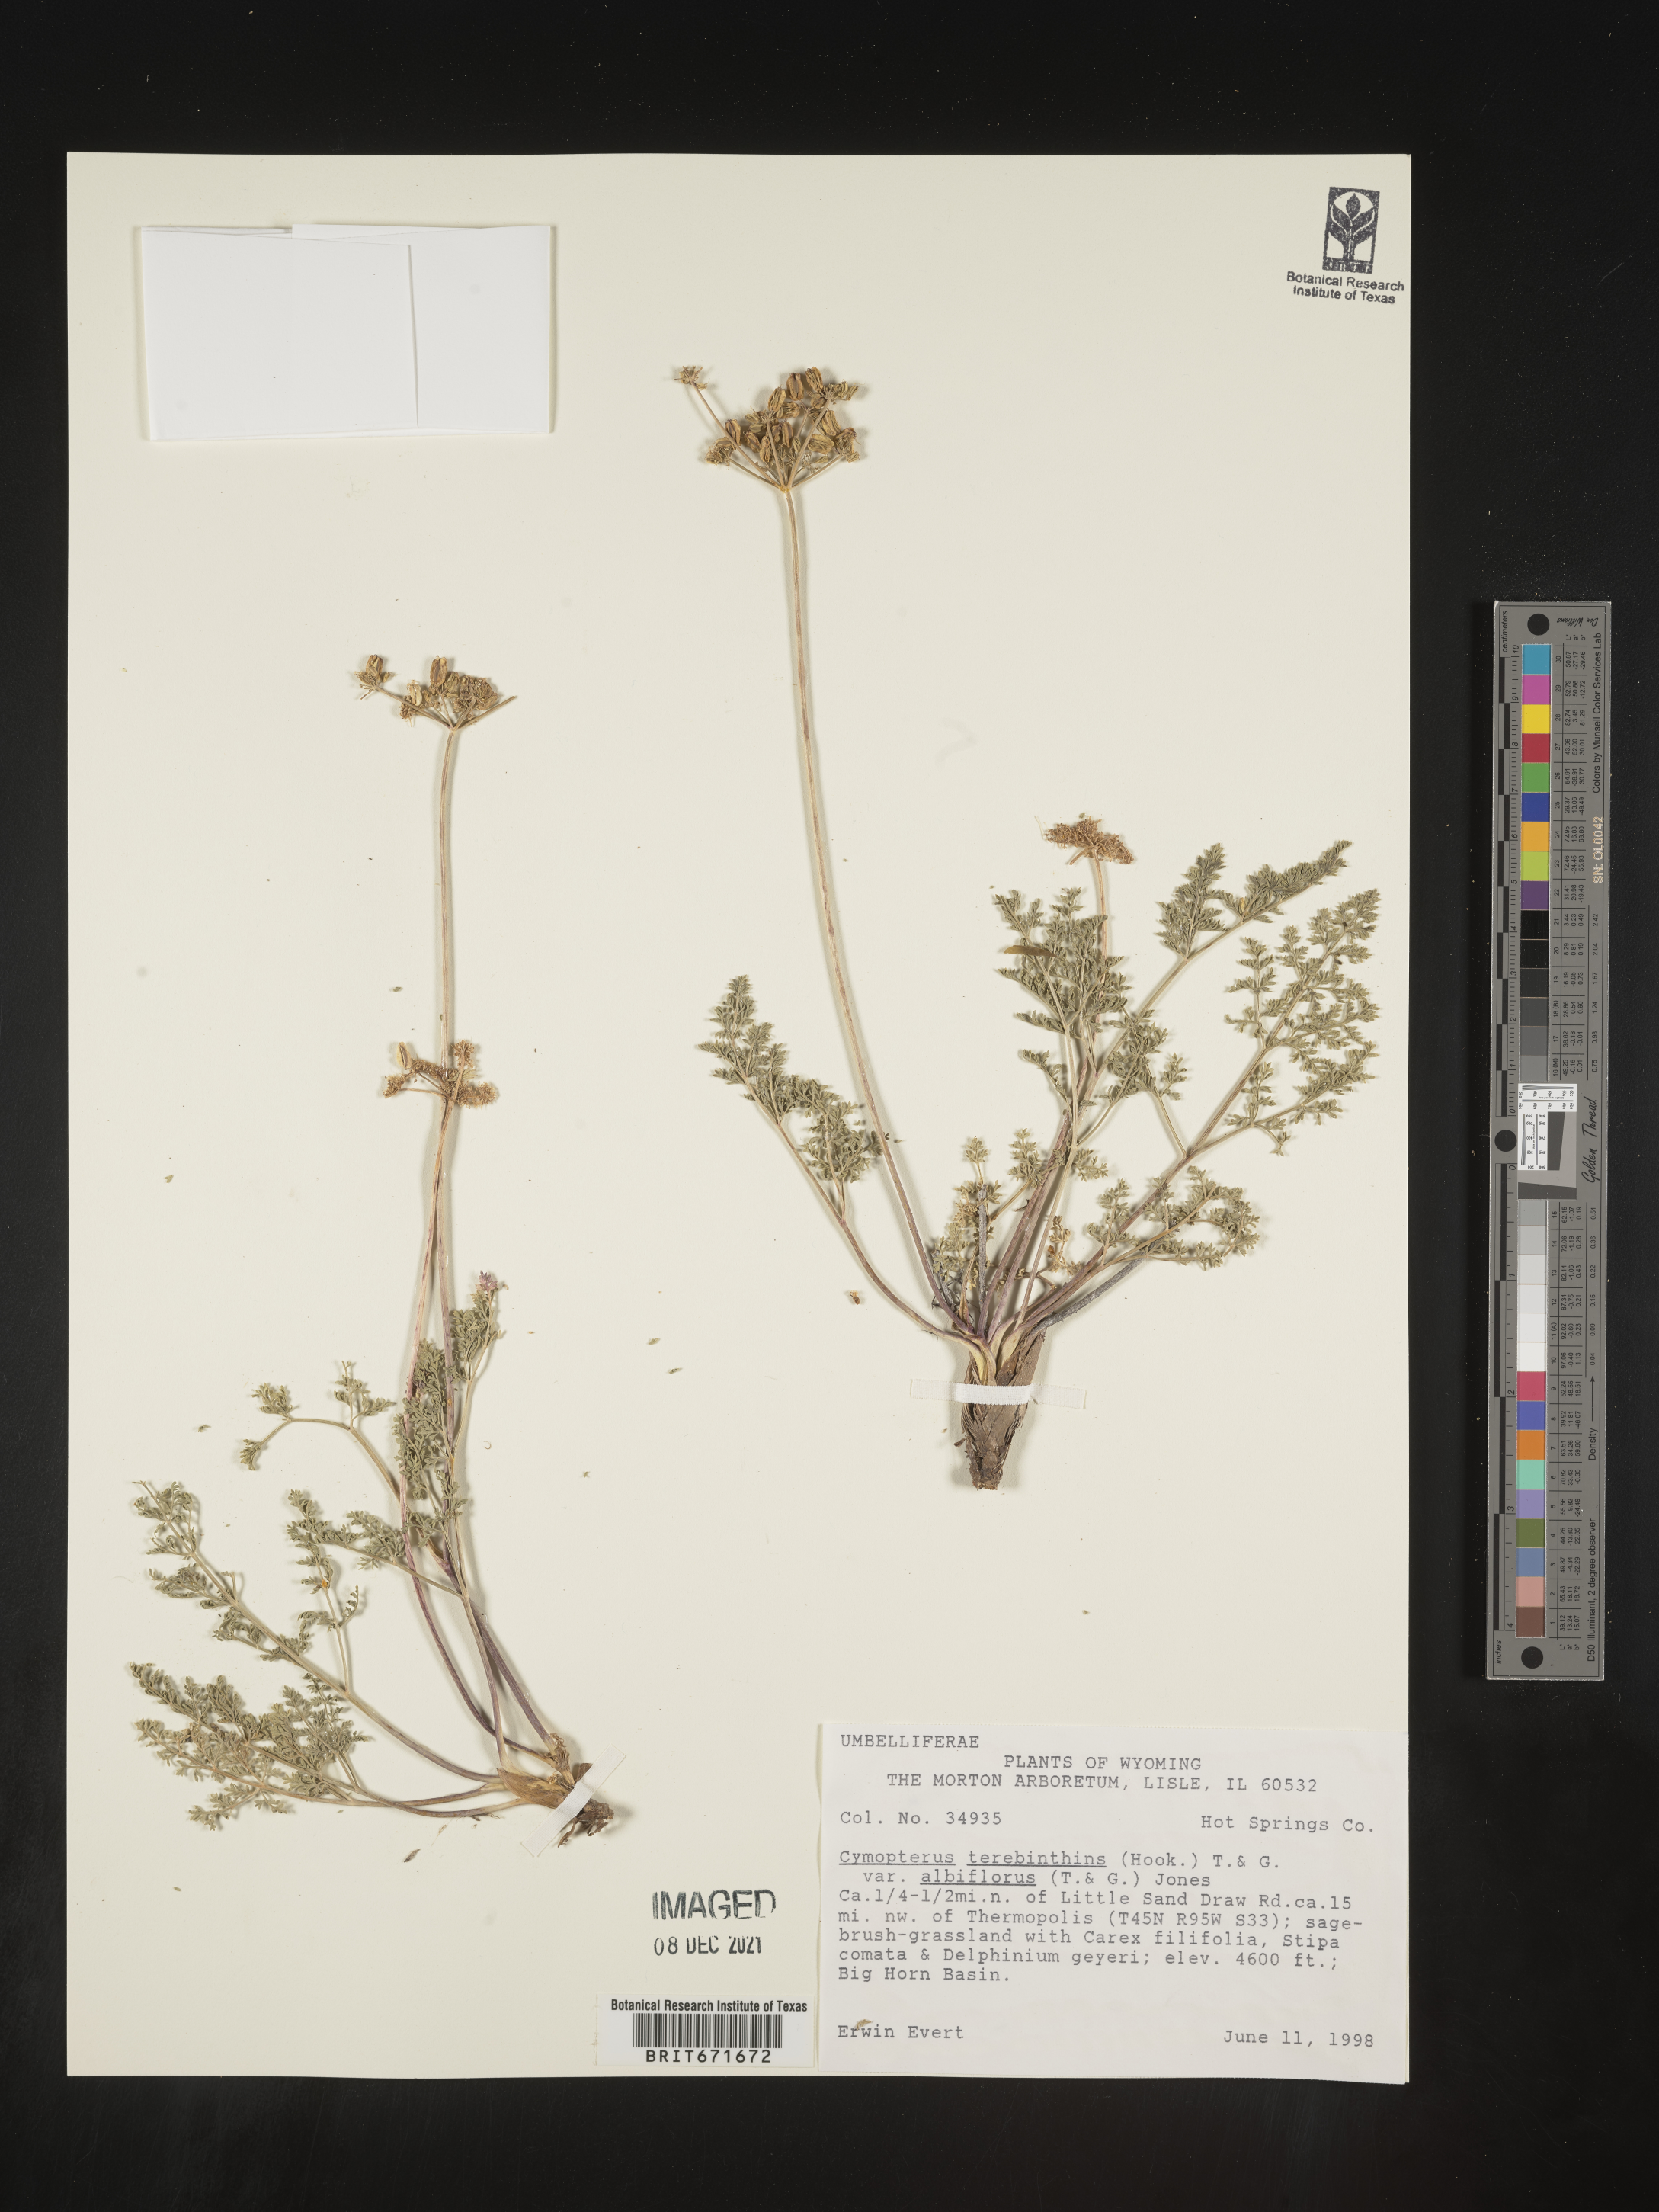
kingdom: Plantae
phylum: Tracheophyta
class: Magnoliopsida
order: Apiales
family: Apiaceae
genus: Pteryxia
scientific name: Pteryxia terebinthina
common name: Turpentine wavewing
